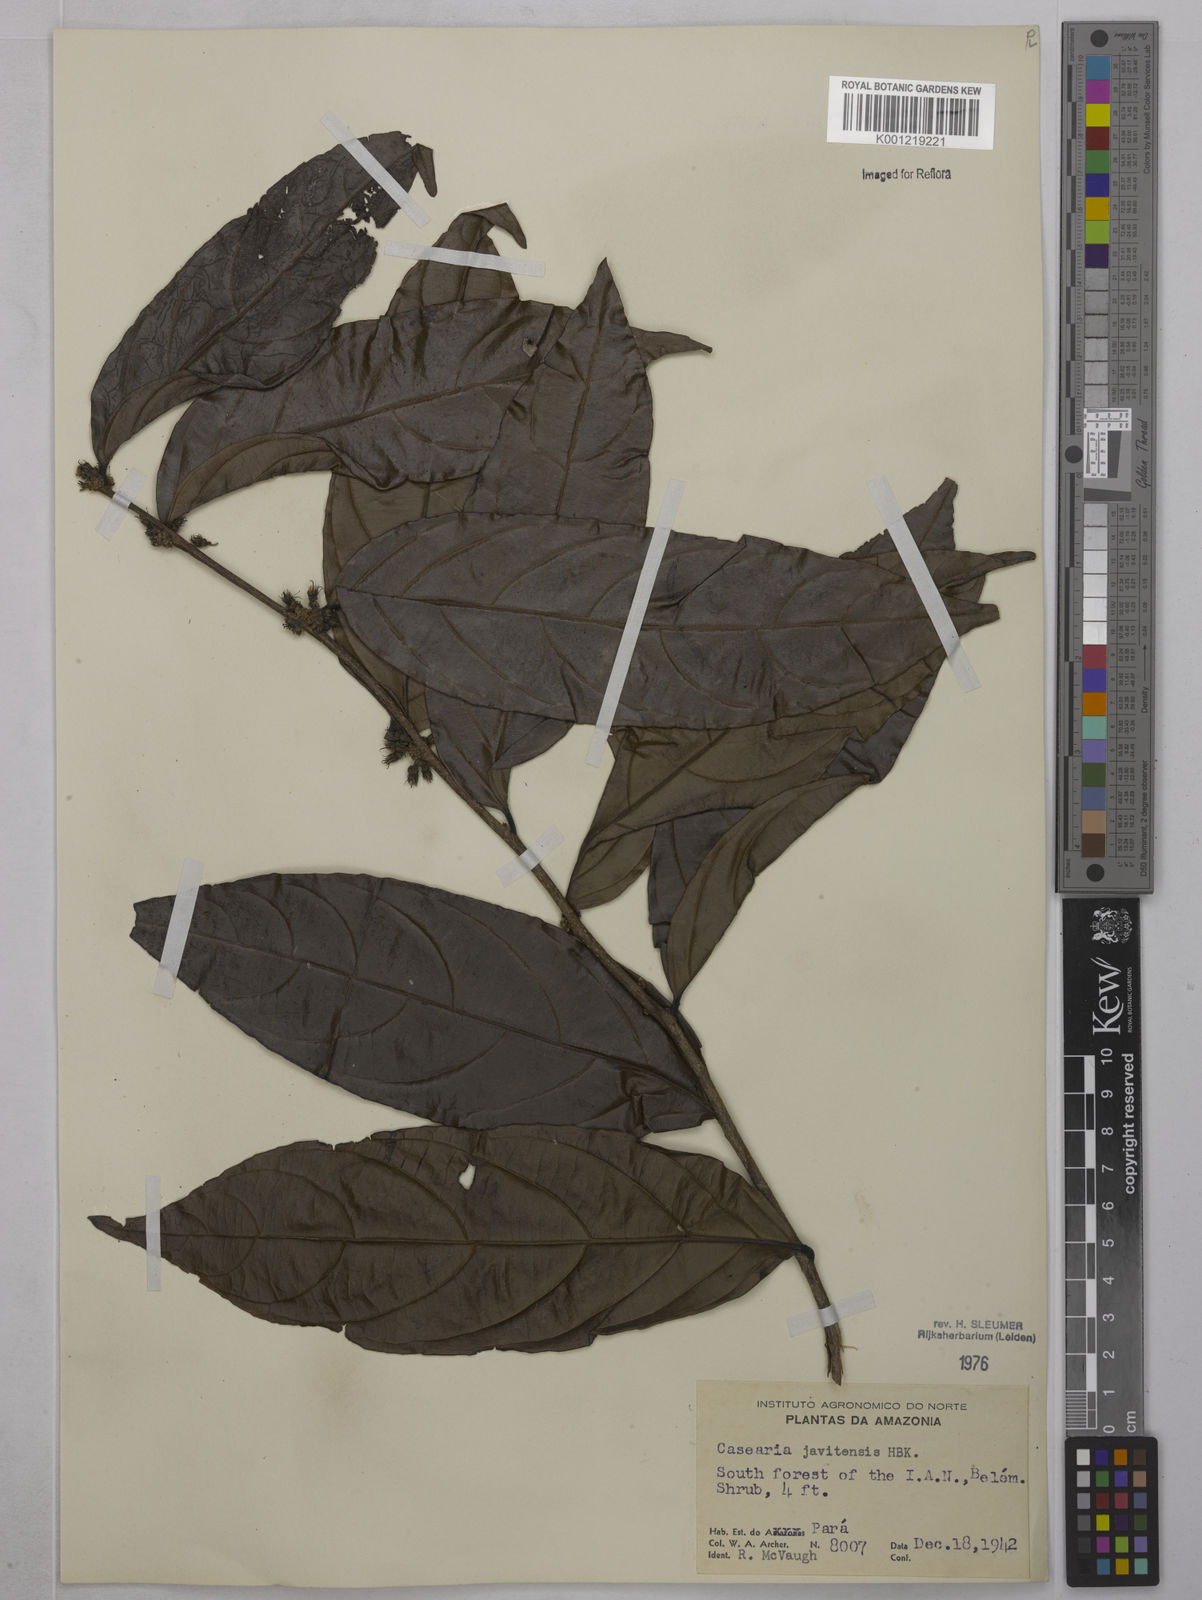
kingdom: Plantae
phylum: Tracheophyta
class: Magnoliopsida
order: Malpighiales
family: Salicaceae
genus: Piparea
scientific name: Piparea multiflora
